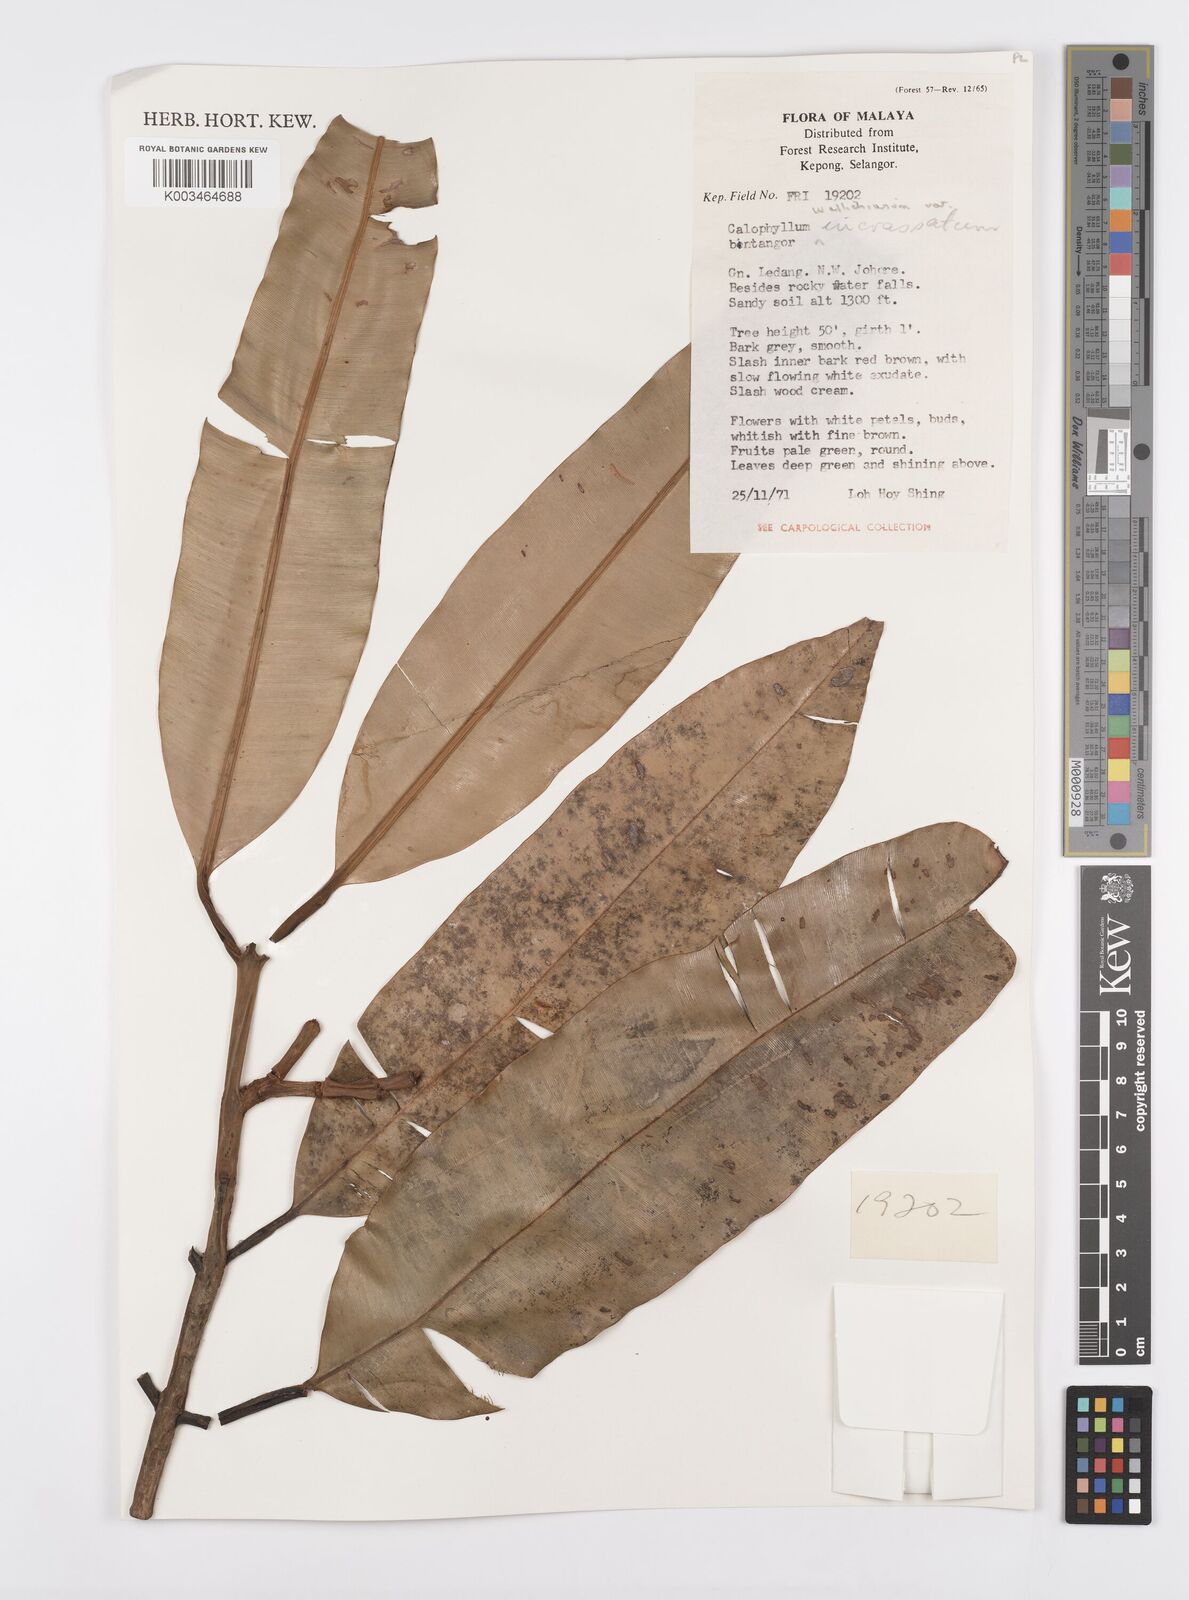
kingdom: Plantae
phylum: Tracheophyta
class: Magnoliopsida
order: Malpighiales
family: Calophyllaceae
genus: Calophyllum
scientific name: Calophyllum wallichiana
